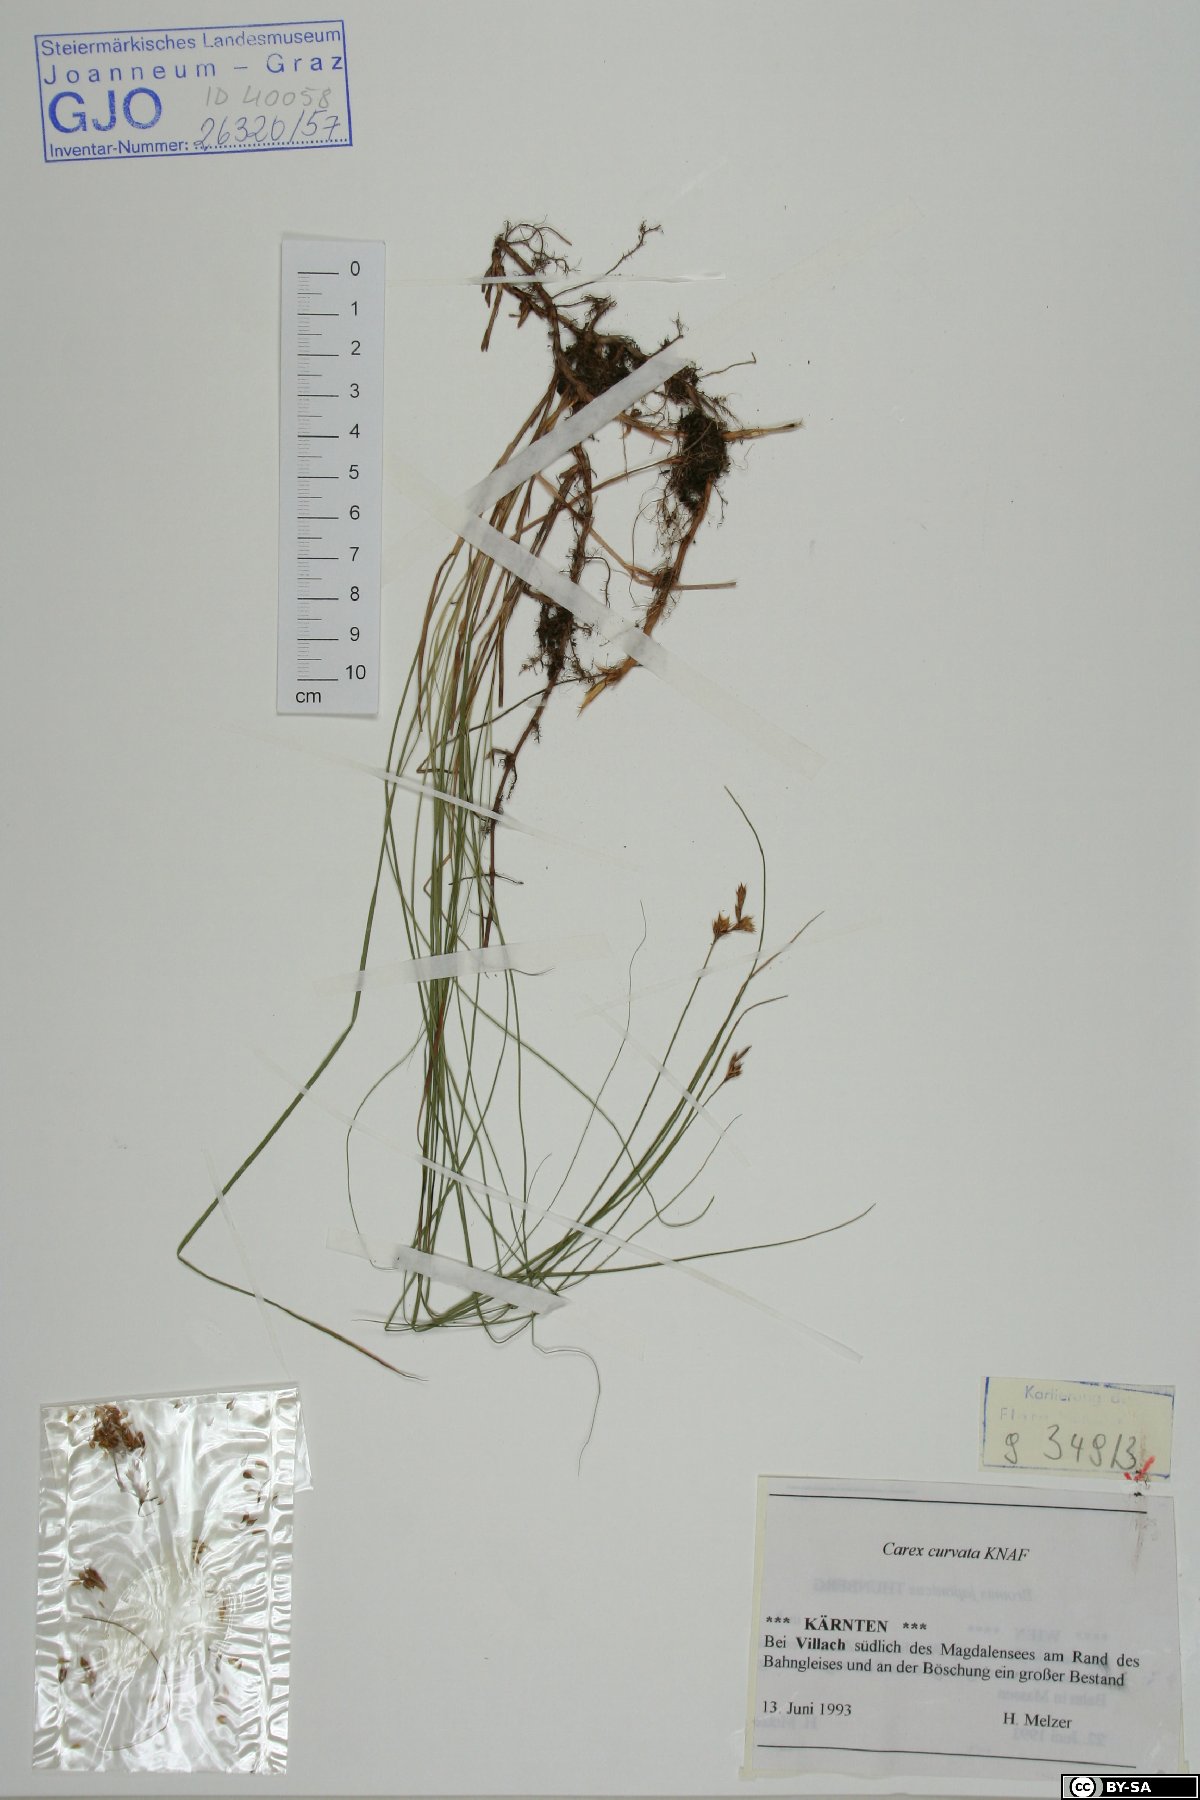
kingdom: Plantae
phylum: Tracheophyta
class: Liliopsida
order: Poales
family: Cyperaceae
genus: Carex
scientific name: Carex curvata
